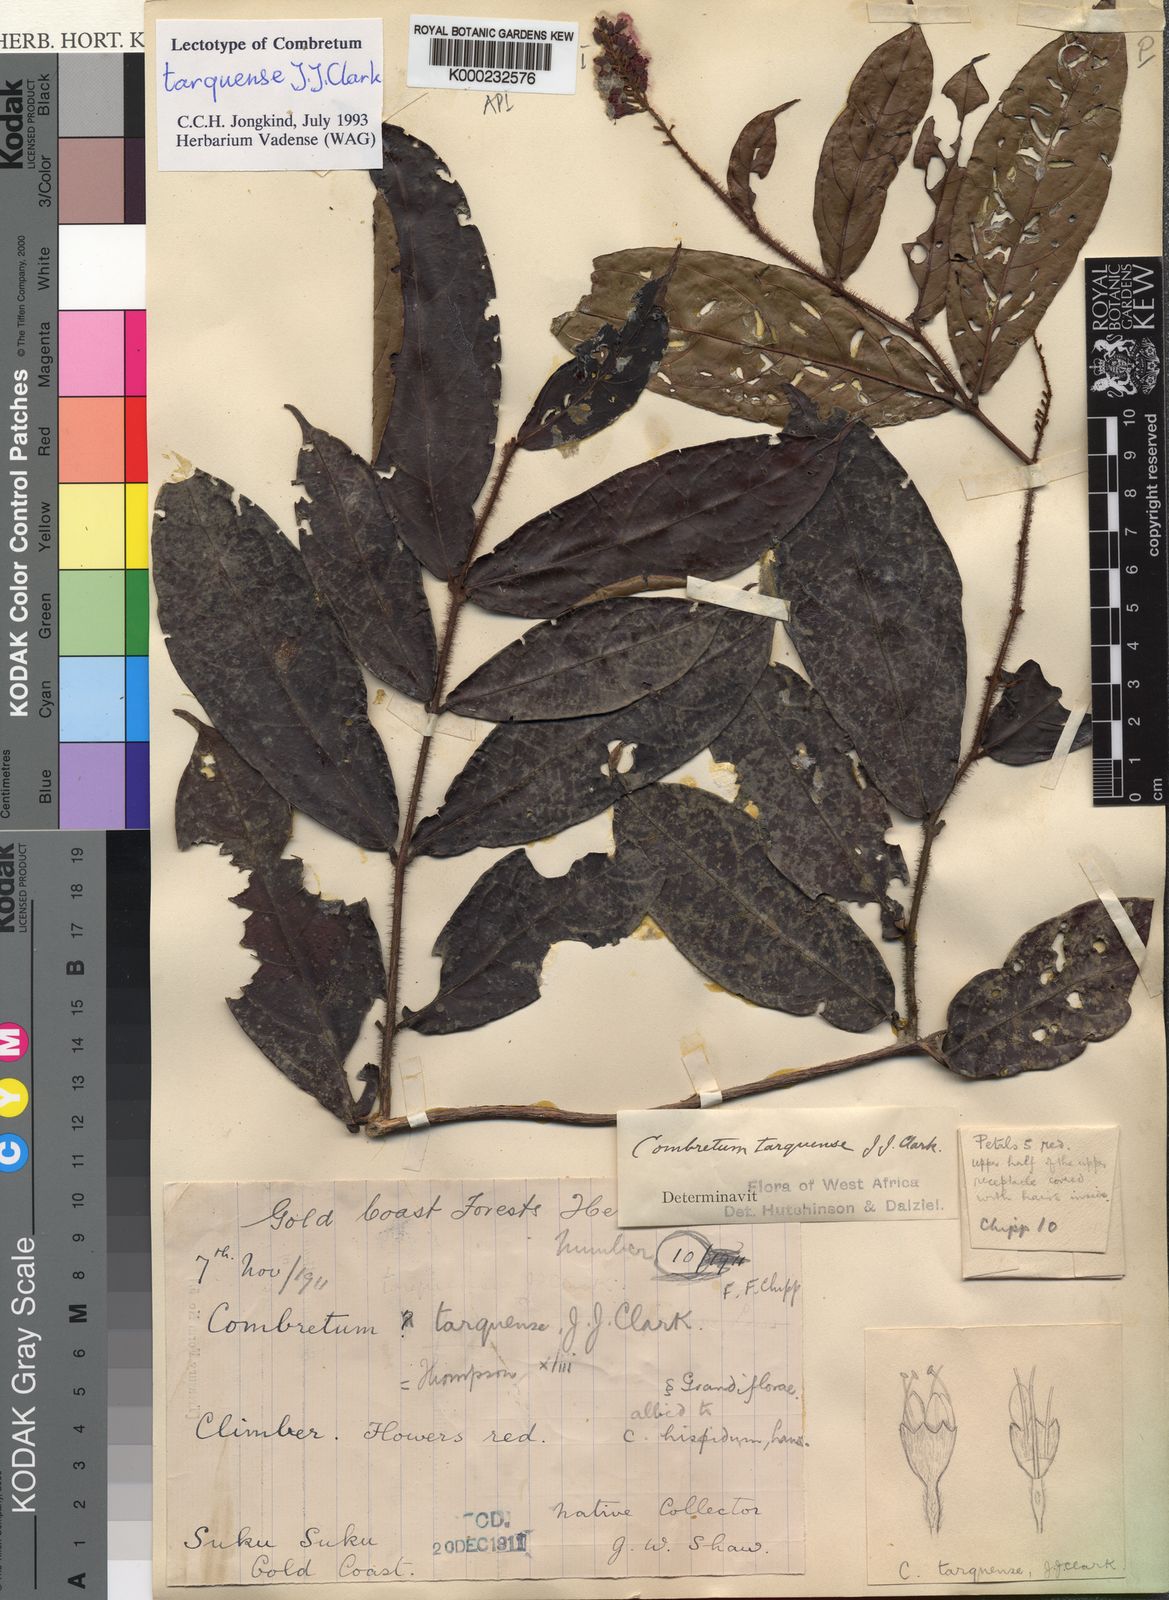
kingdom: Plantae
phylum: Tracheophyta
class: Magnoliopsida
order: Myrtales
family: Combretaceae
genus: Combretum
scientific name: Combretum tarquense
